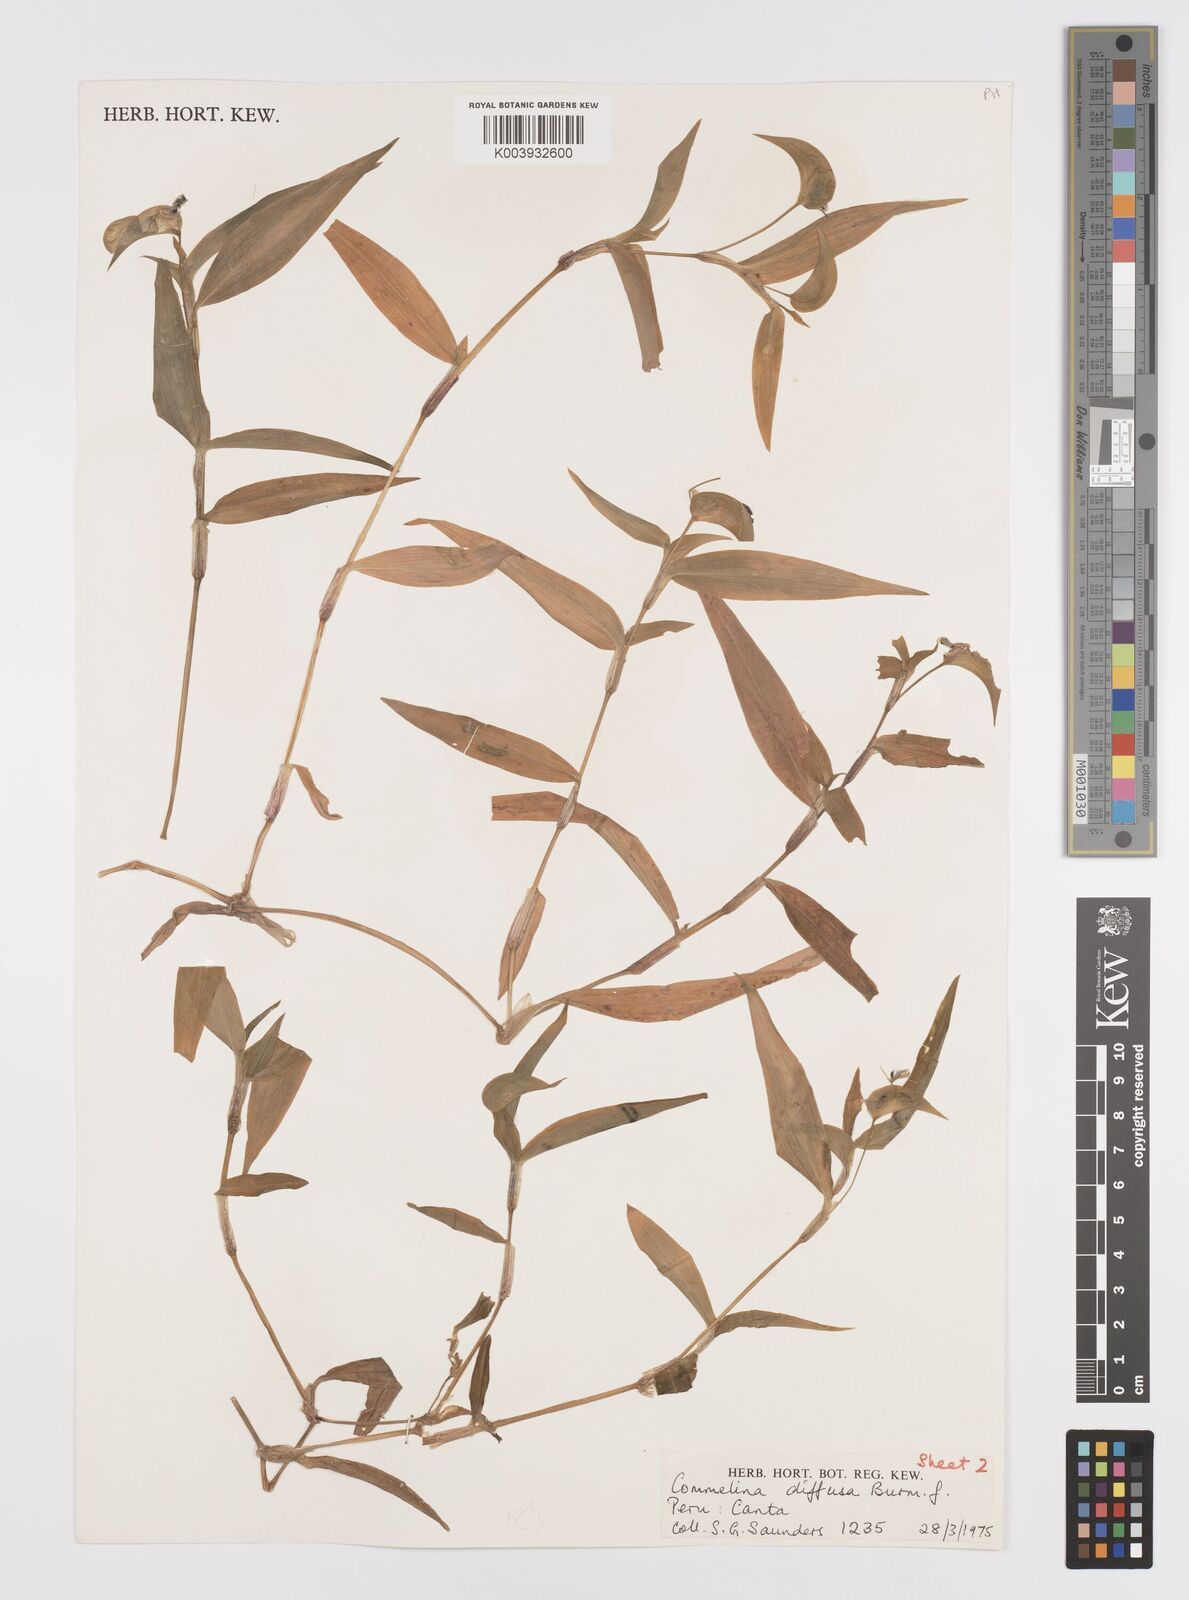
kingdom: Plantae
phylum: Tracheophyta
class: Liliopsida
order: Commelinales
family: Commelinaceae
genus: Commelina
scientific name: Commelina diffusa
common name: Climbing dayflower
